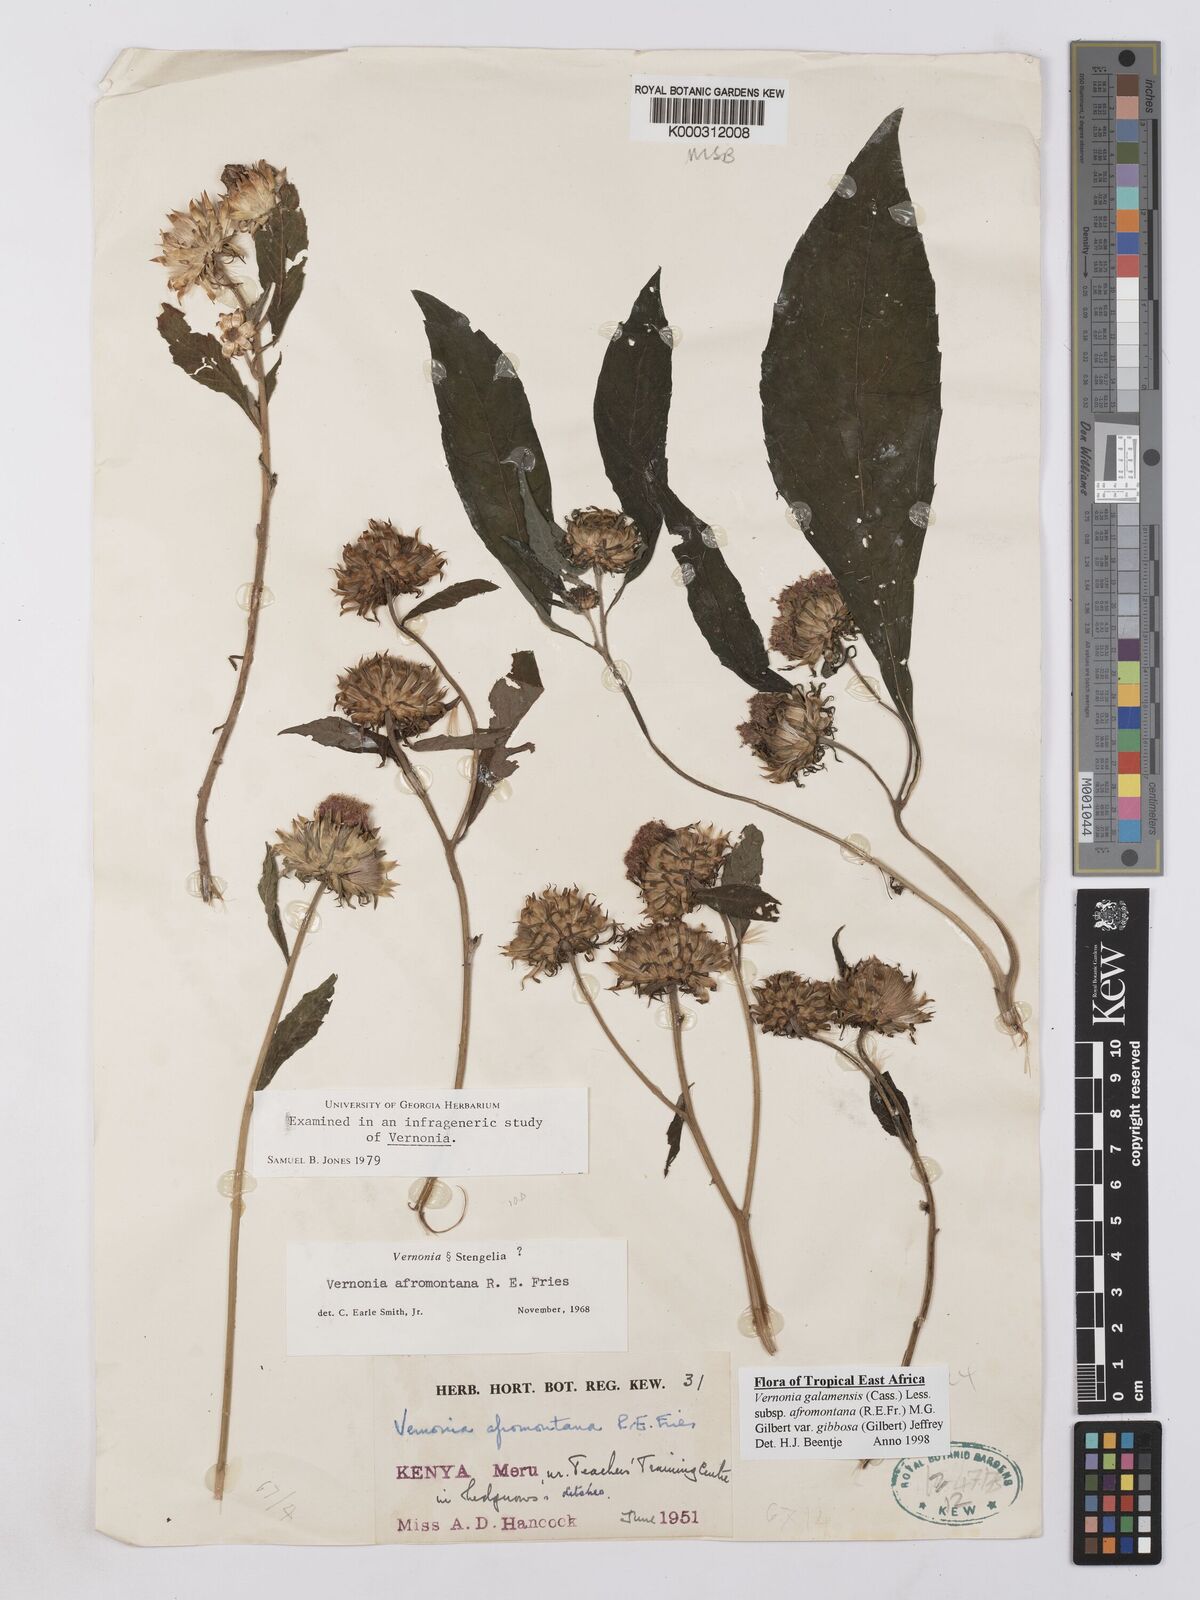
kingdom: Plantae
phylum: Tracheophyta
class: Magnoliopsida
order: Asterales
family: Asteraceae
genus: Vernonia
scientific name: Vernonia galamensis
